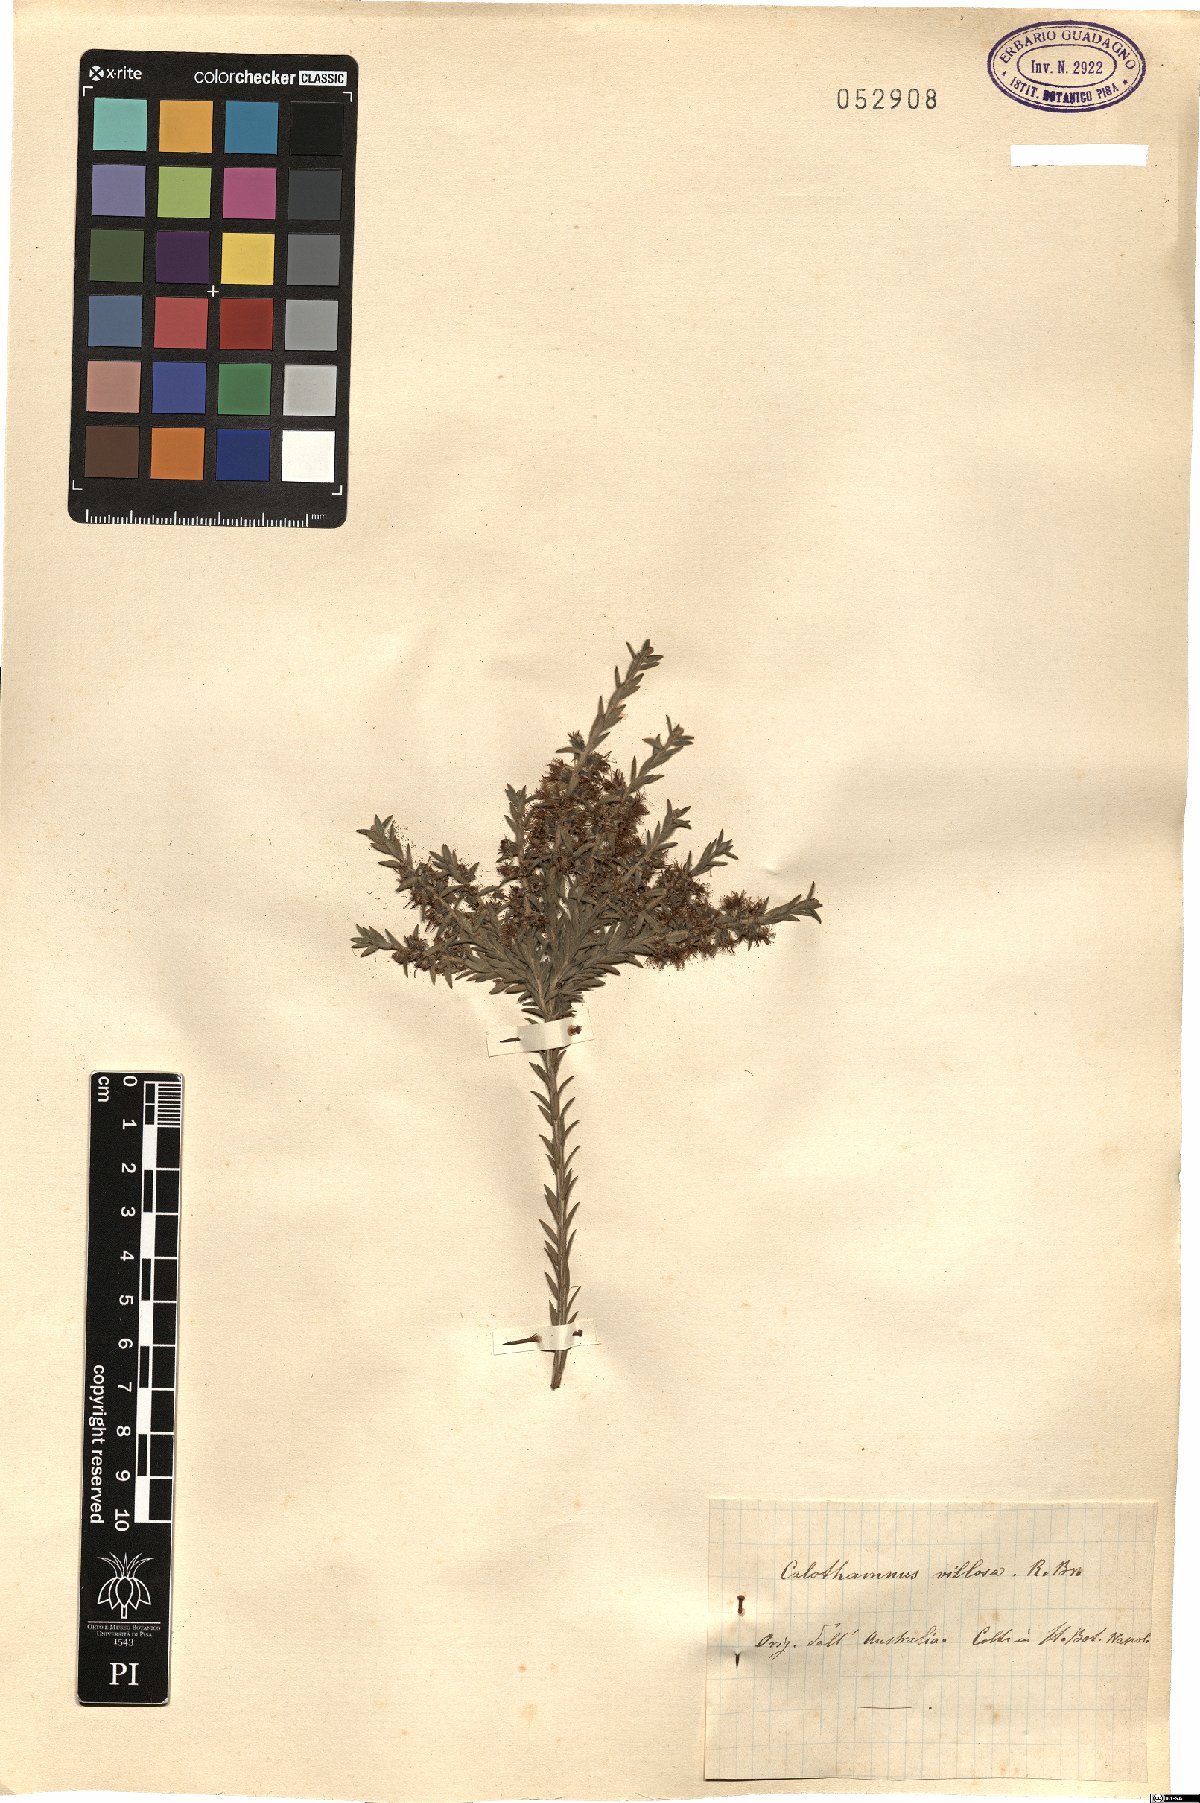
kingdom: Plantae
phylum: Tracheophyta
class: Magnoliopsida
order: Myrtales
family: Myrtaceae
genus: Melaleuca
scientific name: Melaleuca hislopii
